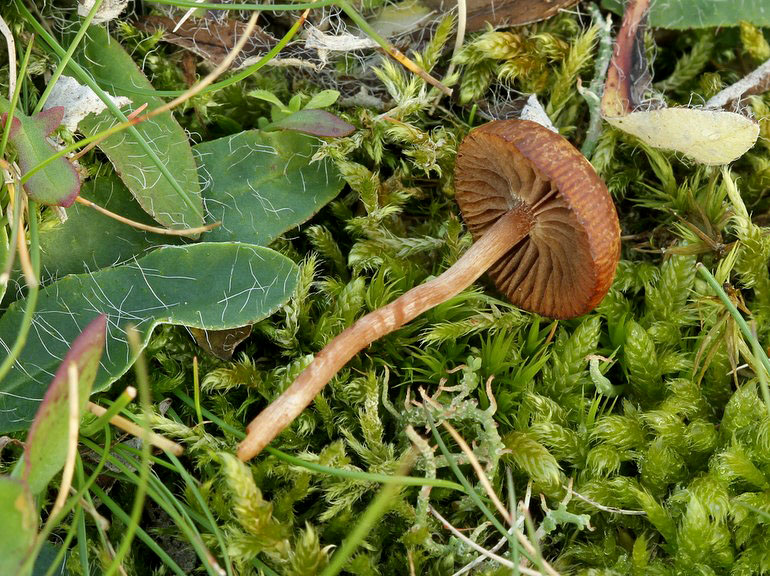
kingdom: Fungi
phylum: Basidiomycota
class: Agaricomycetes
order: Agaricales
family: Strophariaceae
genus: Deconica
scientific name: Deconica montana
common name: rødbrun stråhat
